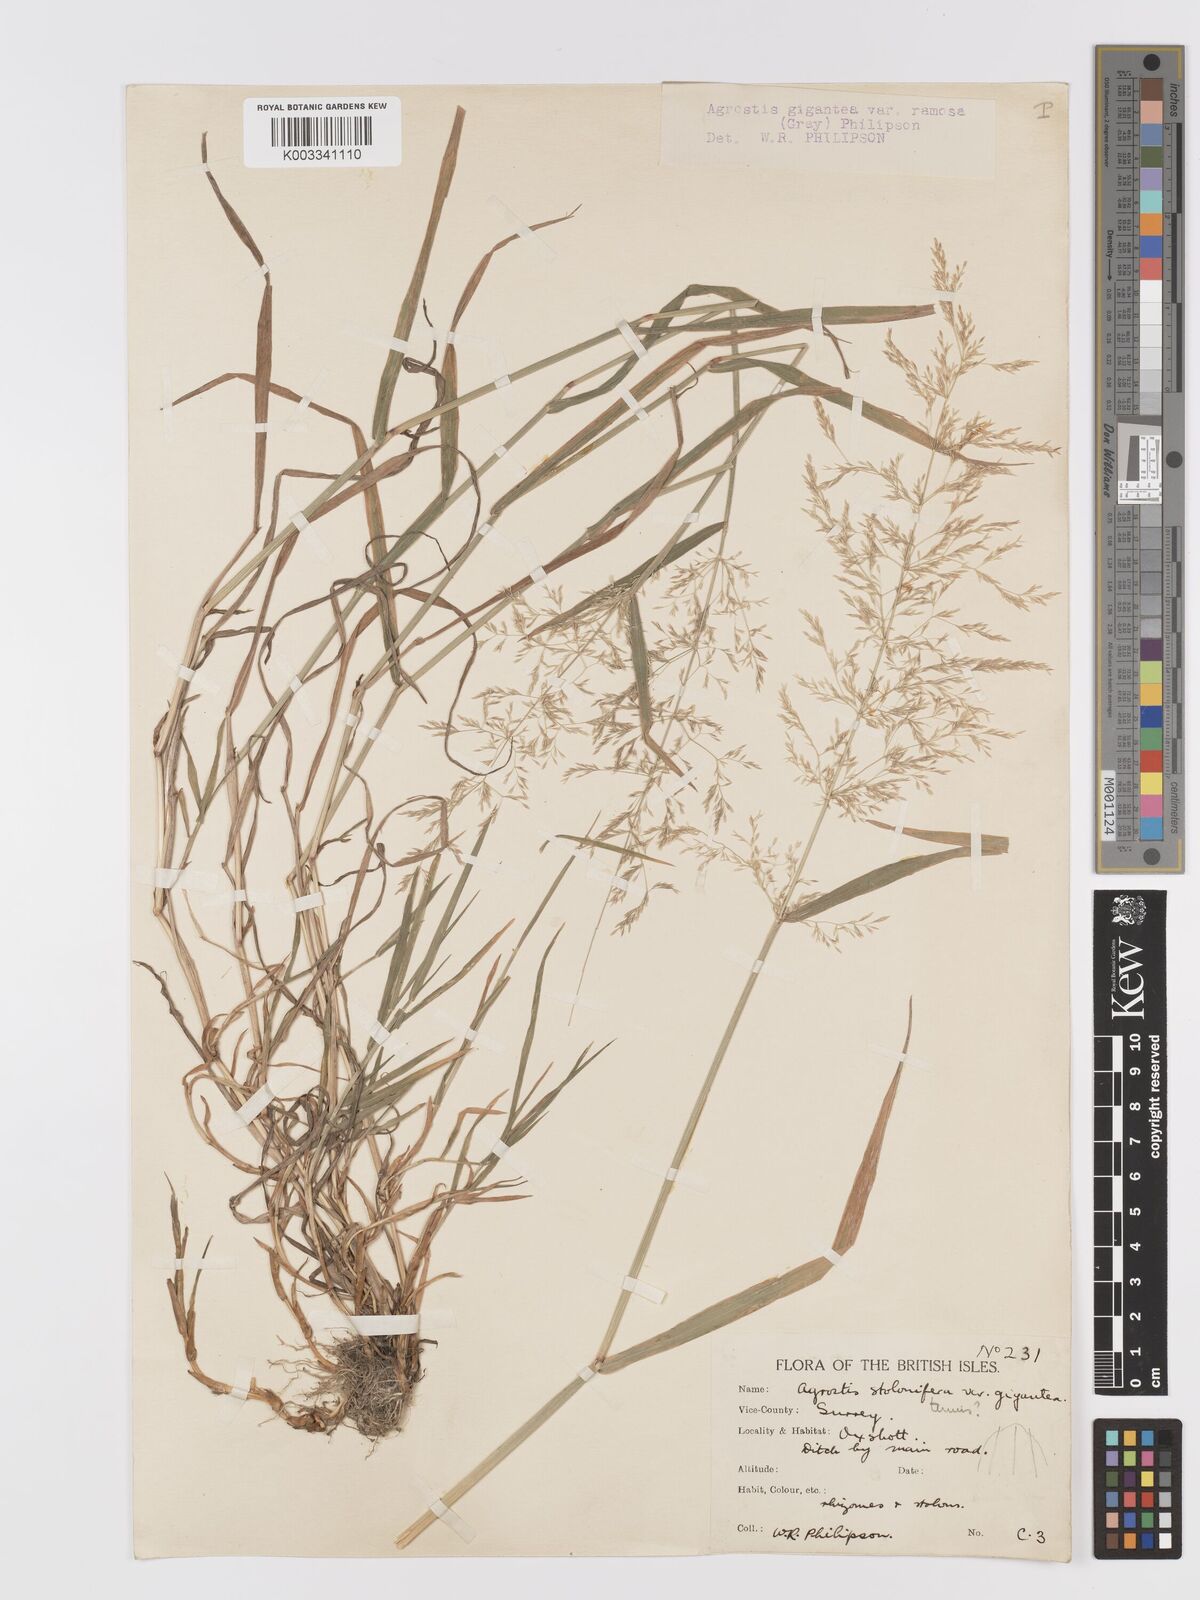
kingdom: Plantae
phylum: Tracheophyta
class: Liliopsida
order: Poales
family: Poaceae
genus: Agrostis
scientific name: Agrostis gigantea
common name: Black bent
